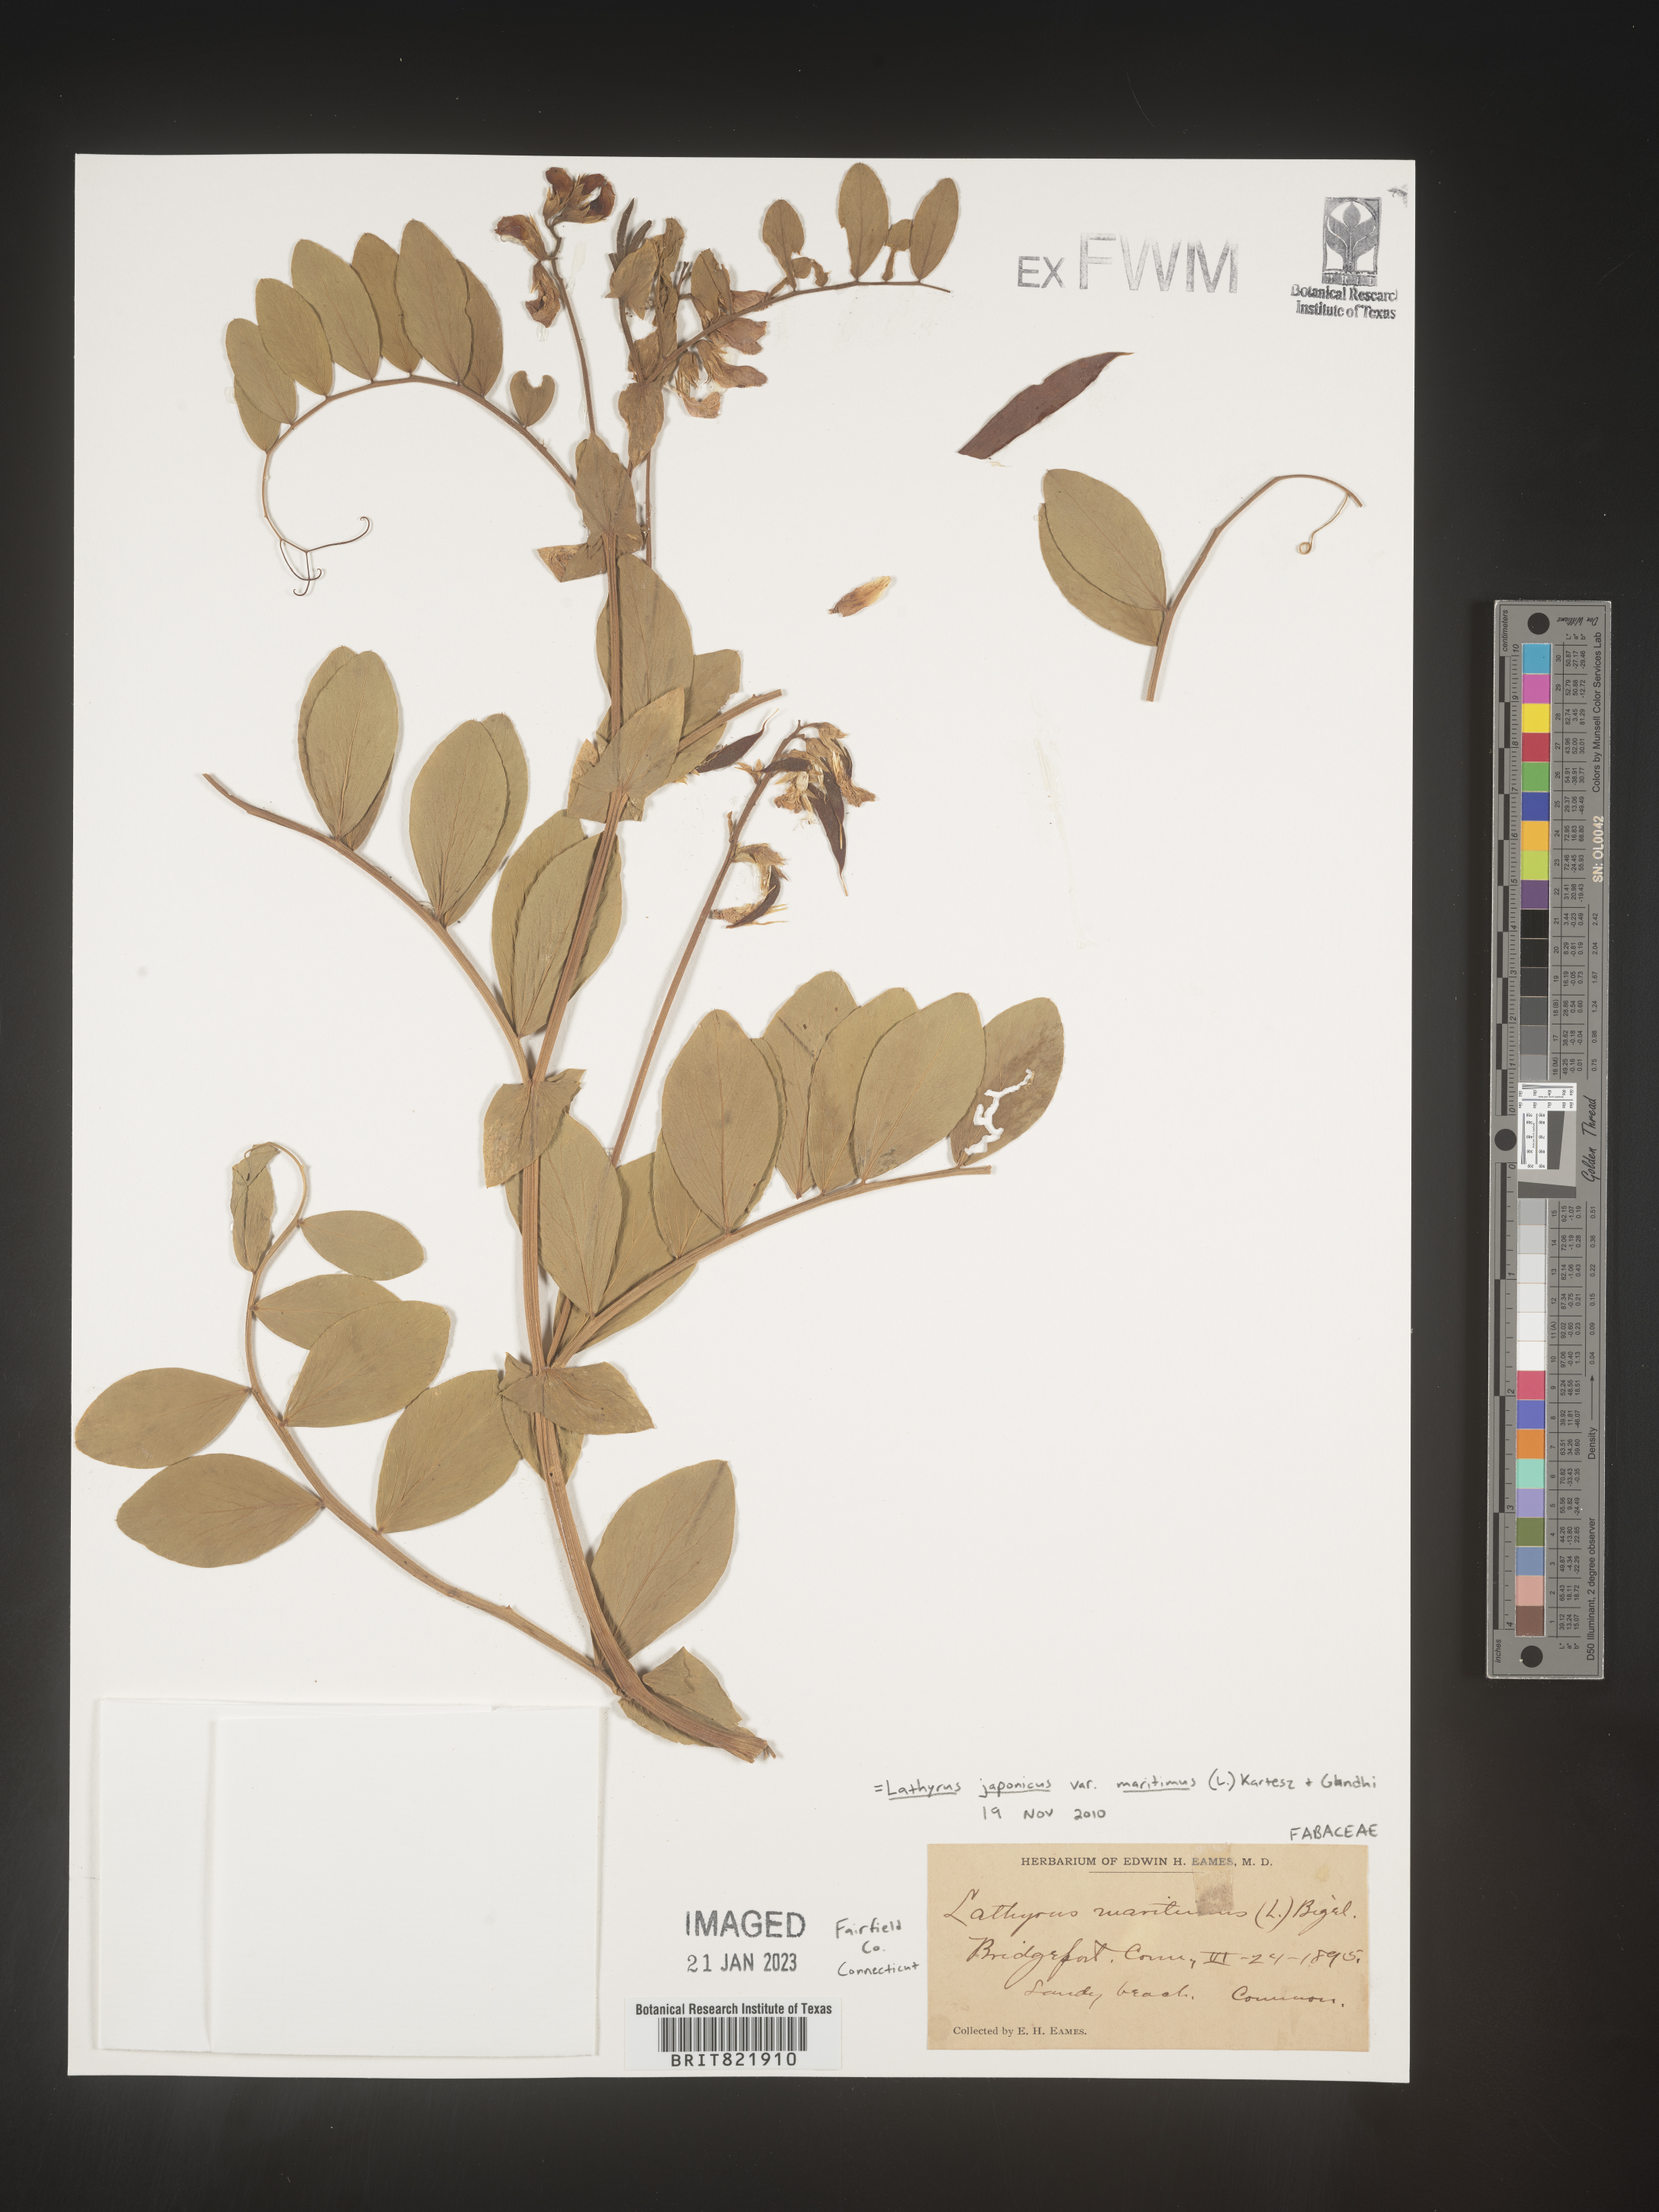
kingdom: Plantae
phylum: Tracheophyta
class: Magnoliopsida
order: Fabales
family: Fabaceae
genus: Lathyrus
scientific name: Lathyrus japonicus
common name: Sea pea
